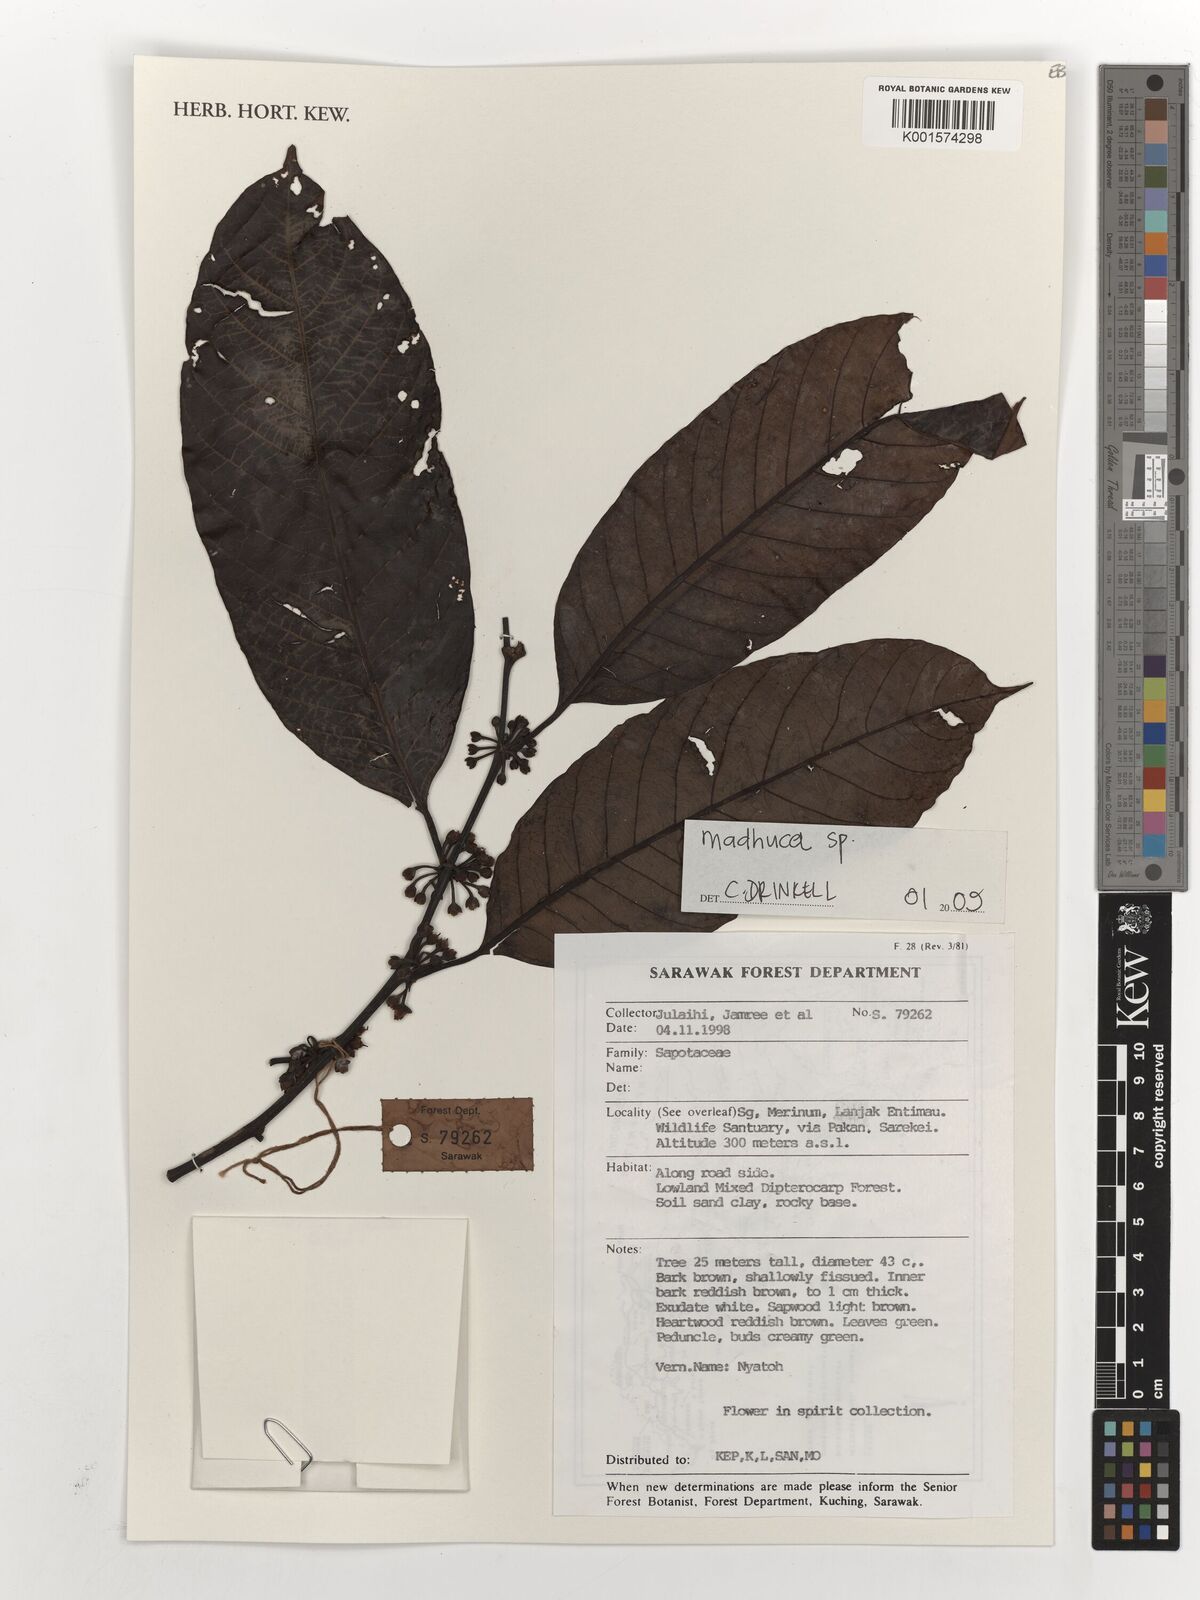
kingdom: Plantae
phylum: Tracheophyta
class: Magnoliopsida
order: Ericales
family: Sapotaceae
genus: Madhuca
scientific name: Madhuca
